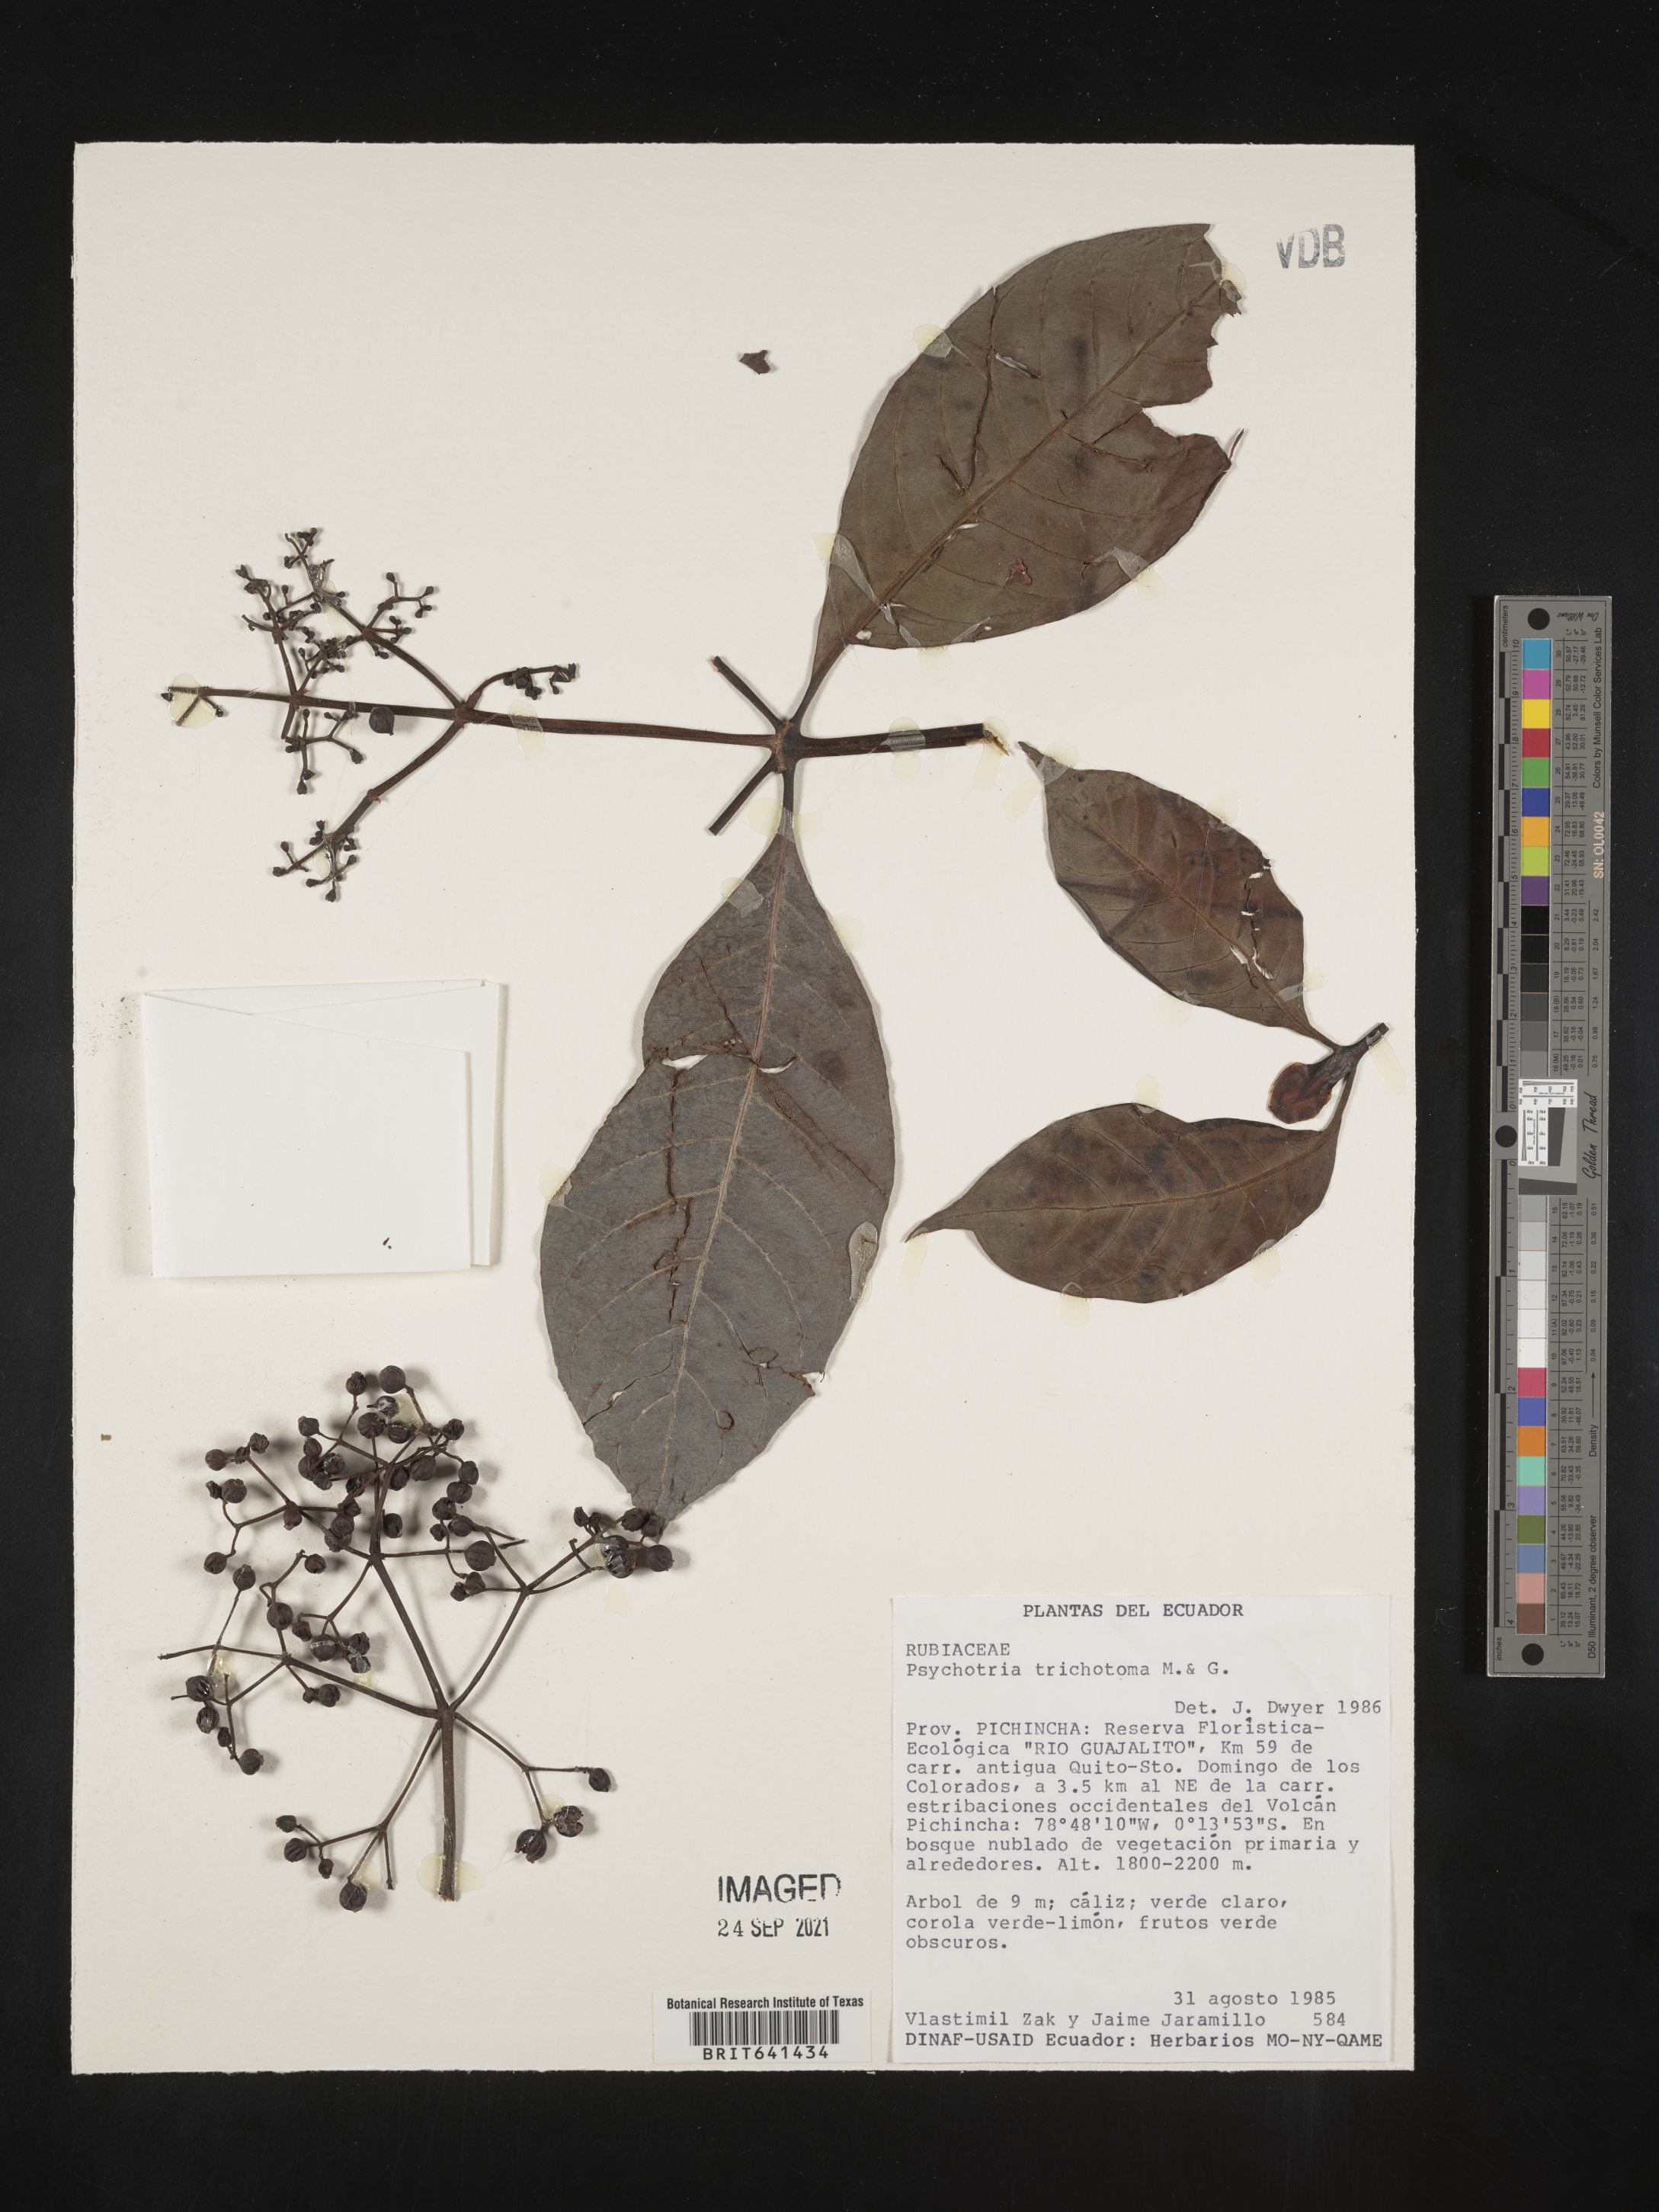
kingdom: Plantae
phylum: Tracheophyta
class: Magnoliopsida
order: Gentianales
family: Rubiaceae
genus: Psychotria
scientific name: Psychotria
